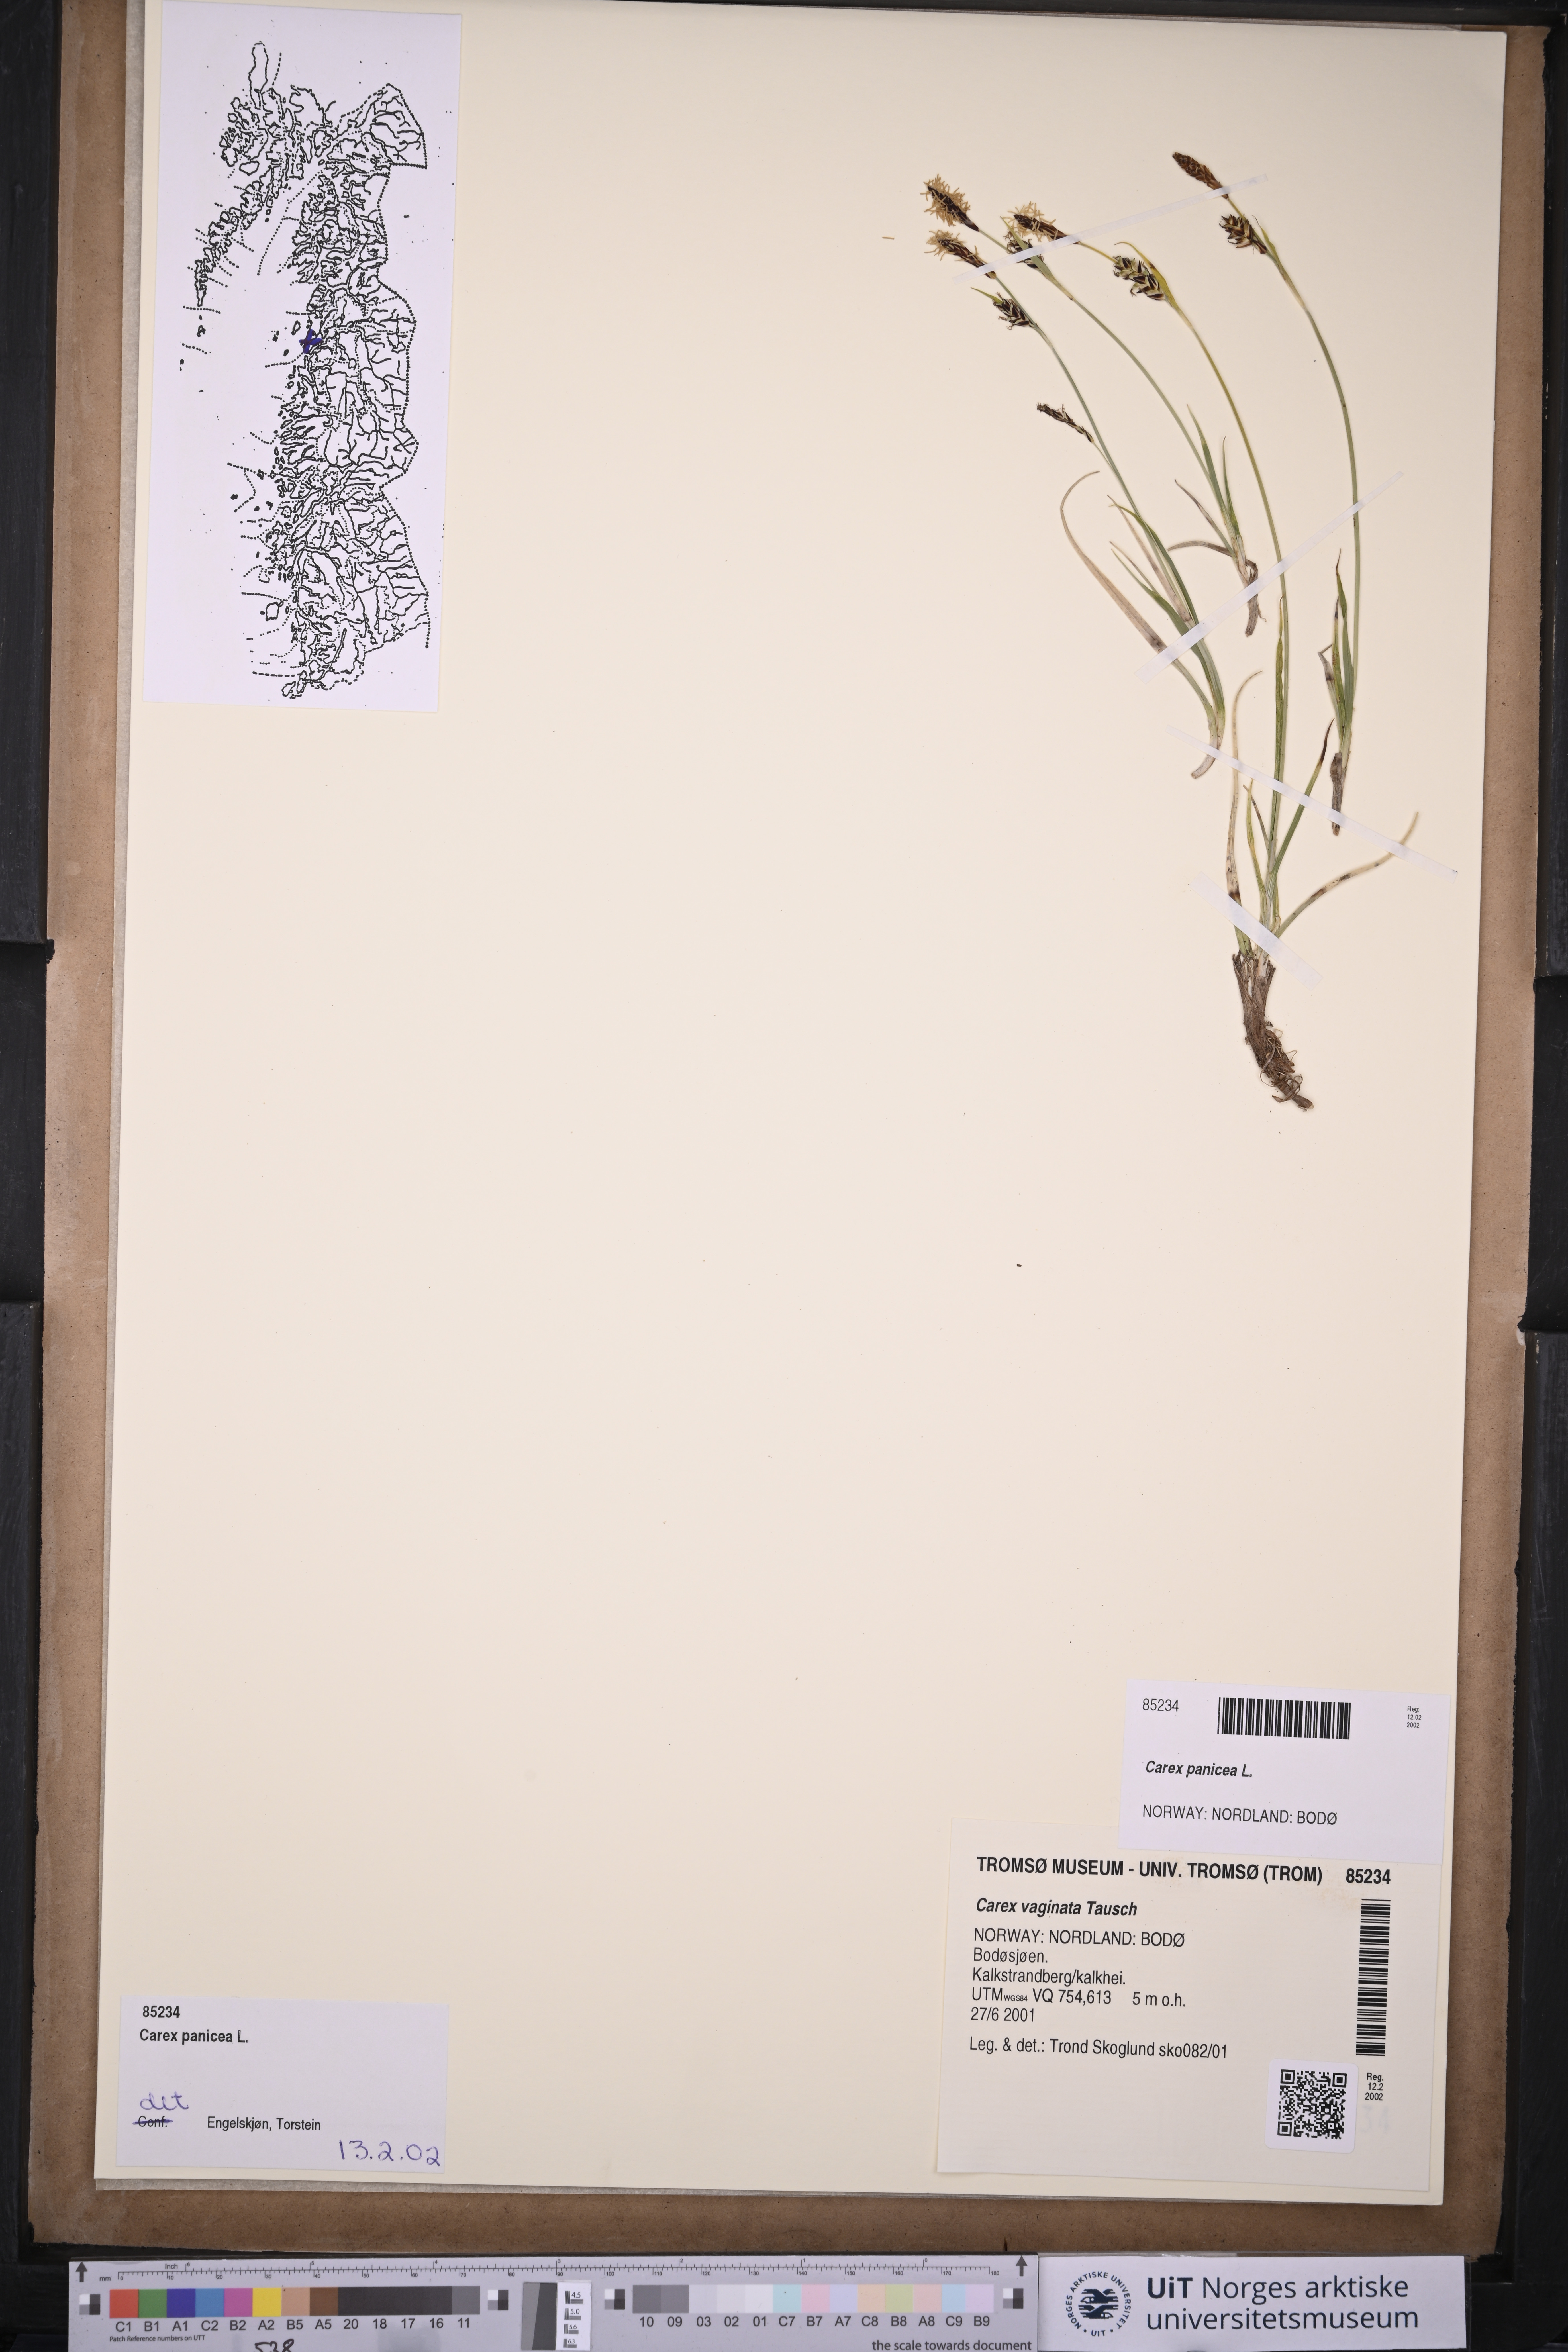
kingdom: Plantae
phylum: Tracheophyta
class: Liliopsida
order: Poales
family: Cyperaceae
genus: Carex
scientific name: Carex vaginata
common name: Sheathed sedge
